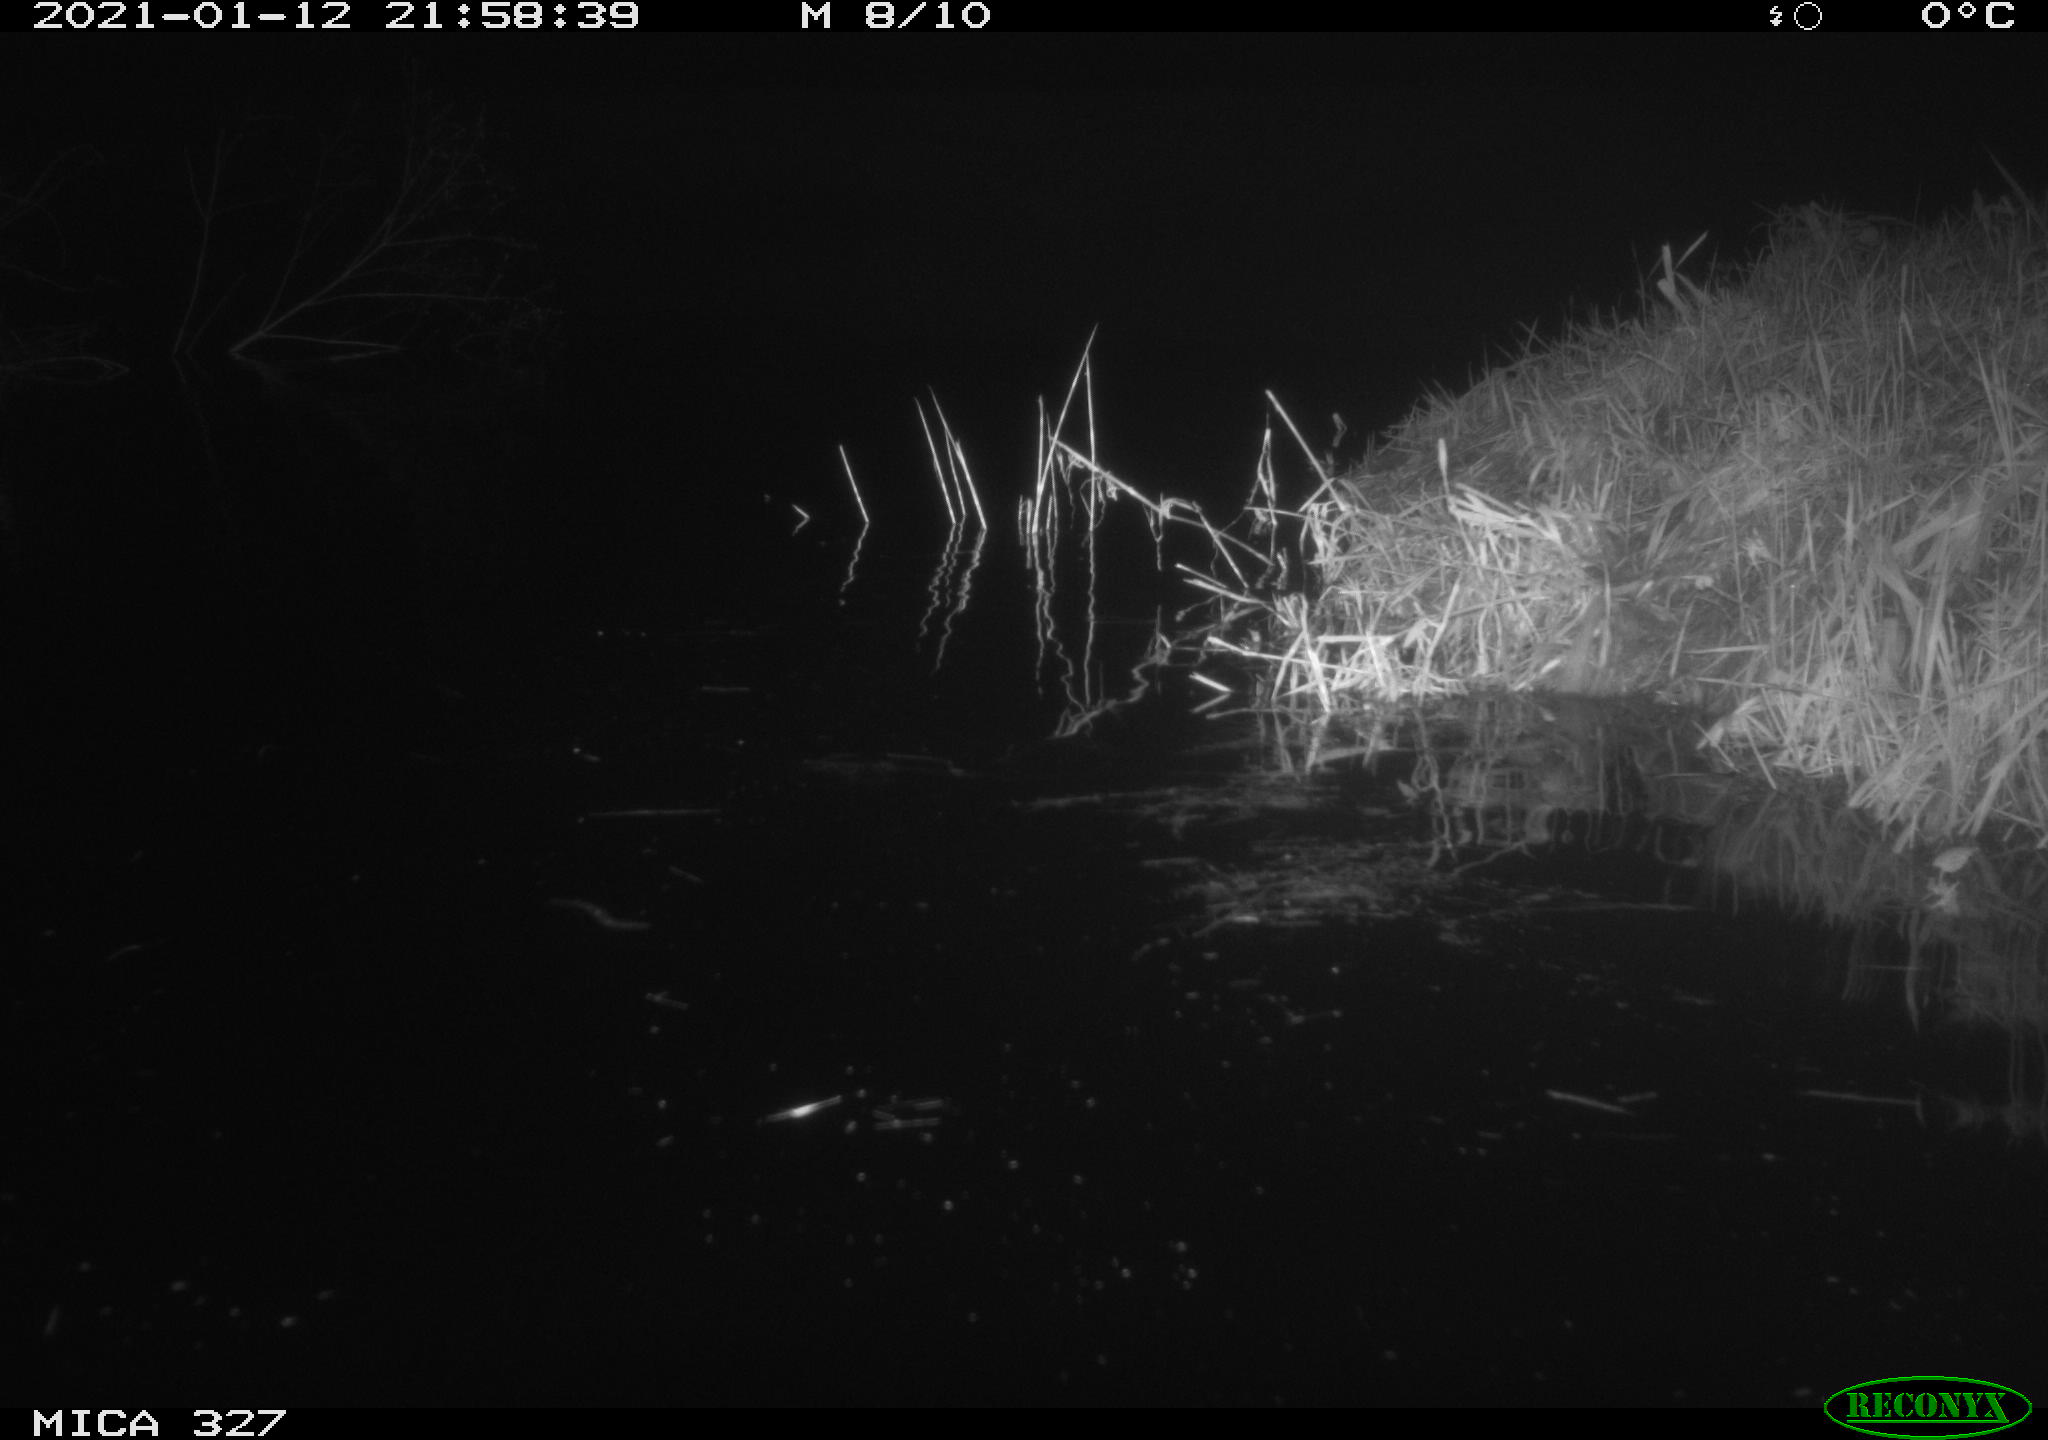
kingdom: Animalia
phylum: Chordata
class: Mammalia
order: Rodentia
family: Cricetidae
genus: Ondatra
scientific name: Ondatra zibethicus
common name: Muskrat
